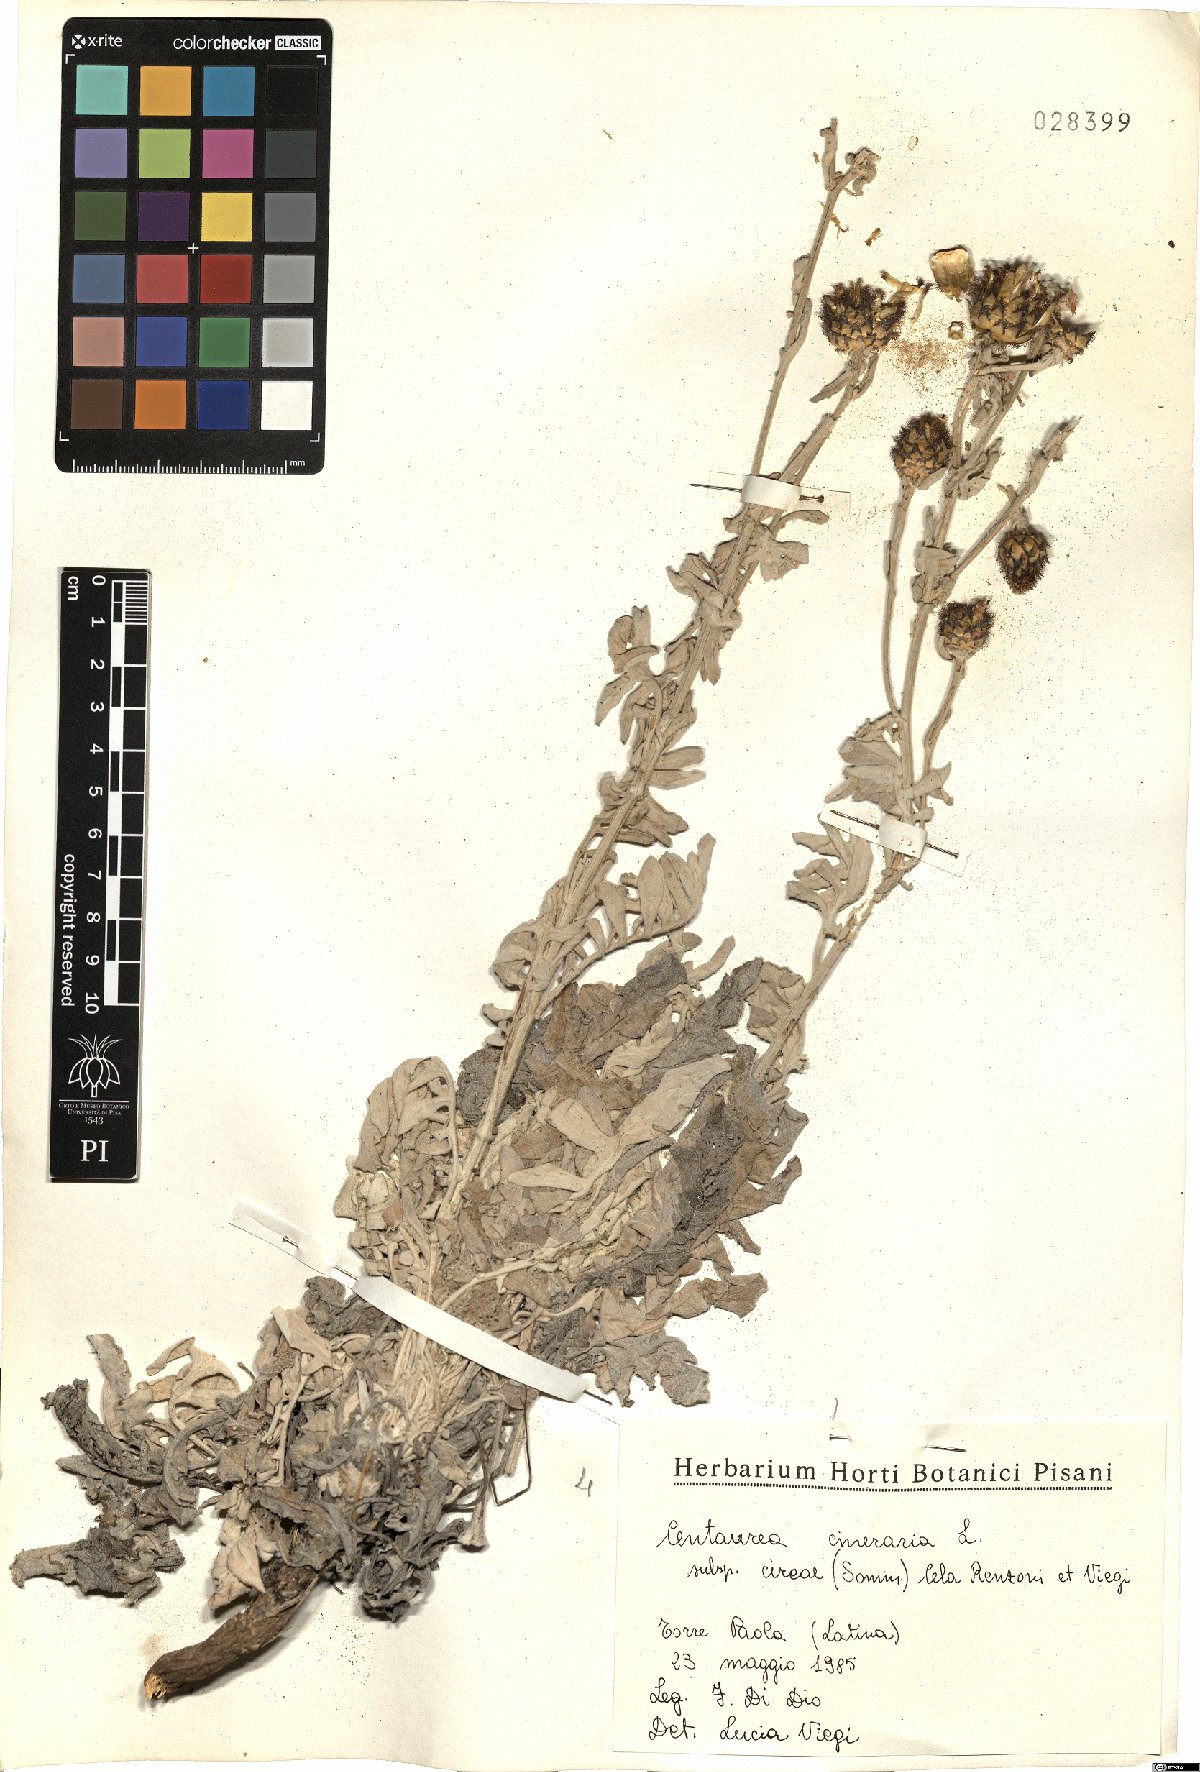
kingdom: Plantae
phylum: Tracheophyta
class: Magnoliopsida
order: Asterales
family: Asteraceae
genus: Centaurea
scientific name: Centaurea cineraria
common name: Dusty miller
